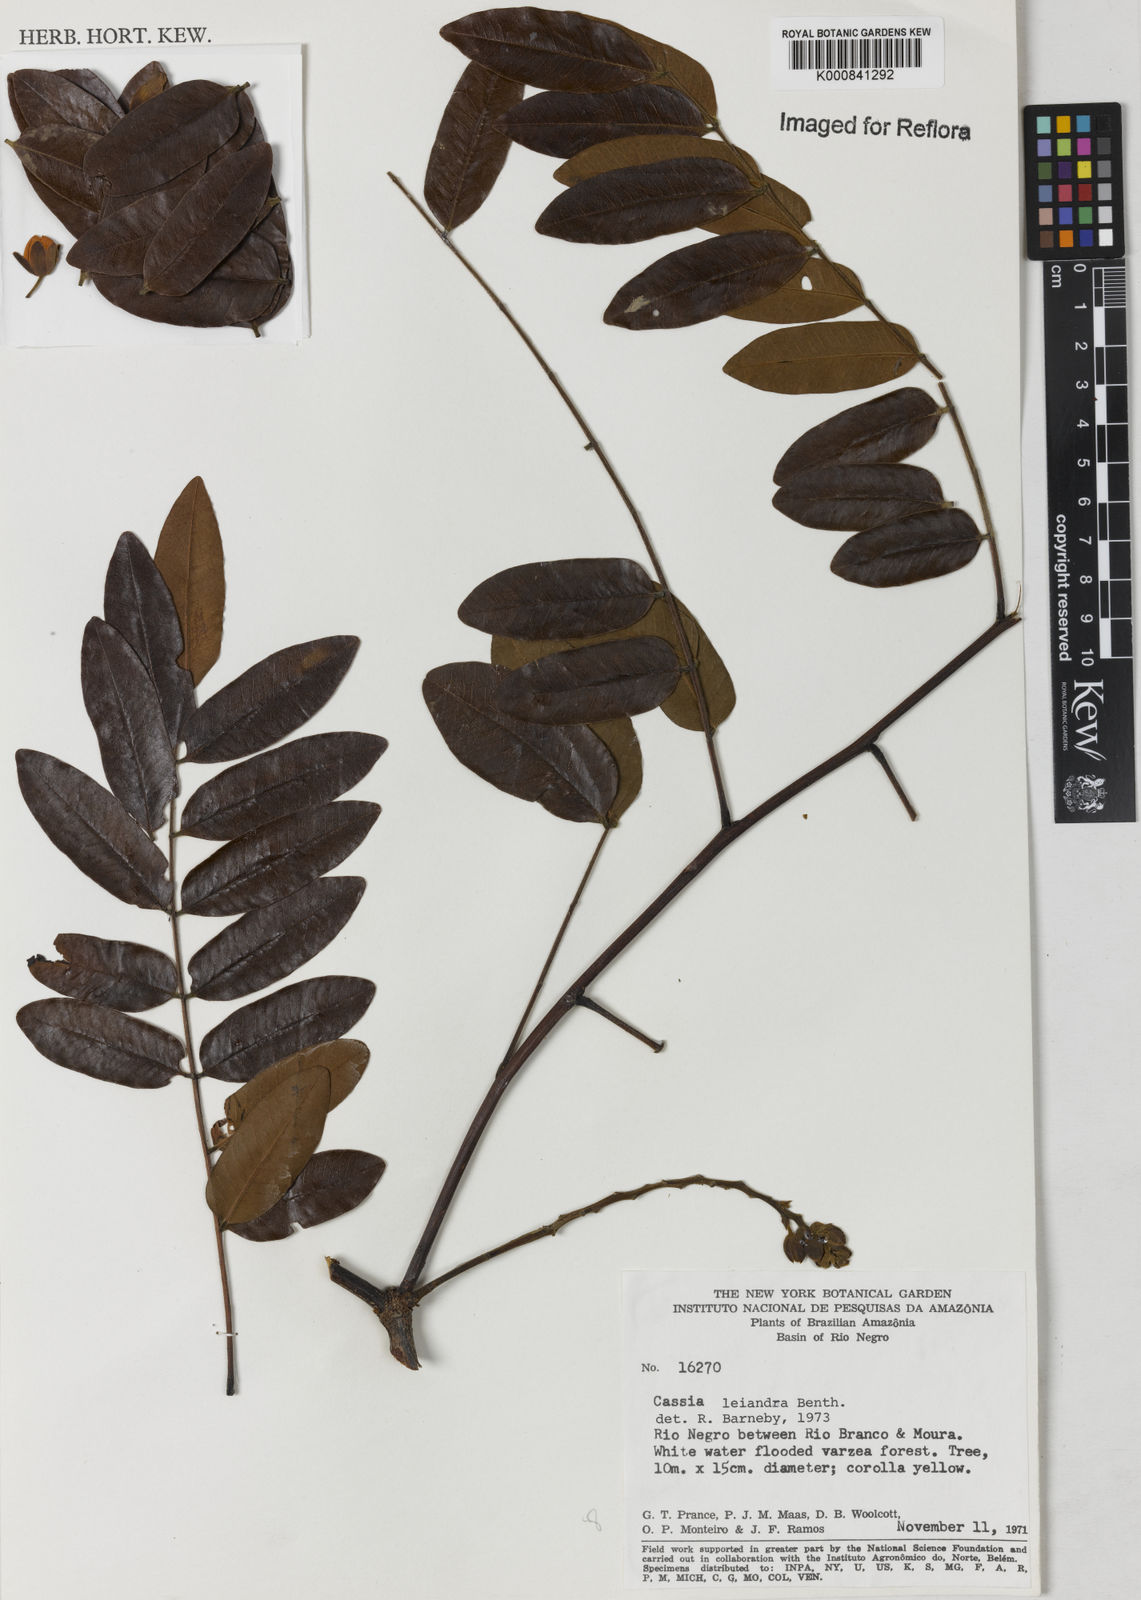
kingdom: Plantae
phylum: Tracheophyta
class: Magnoliopsida
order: Fabales
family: Fabaceae
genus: Cassia
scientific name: Cassia leiandra
